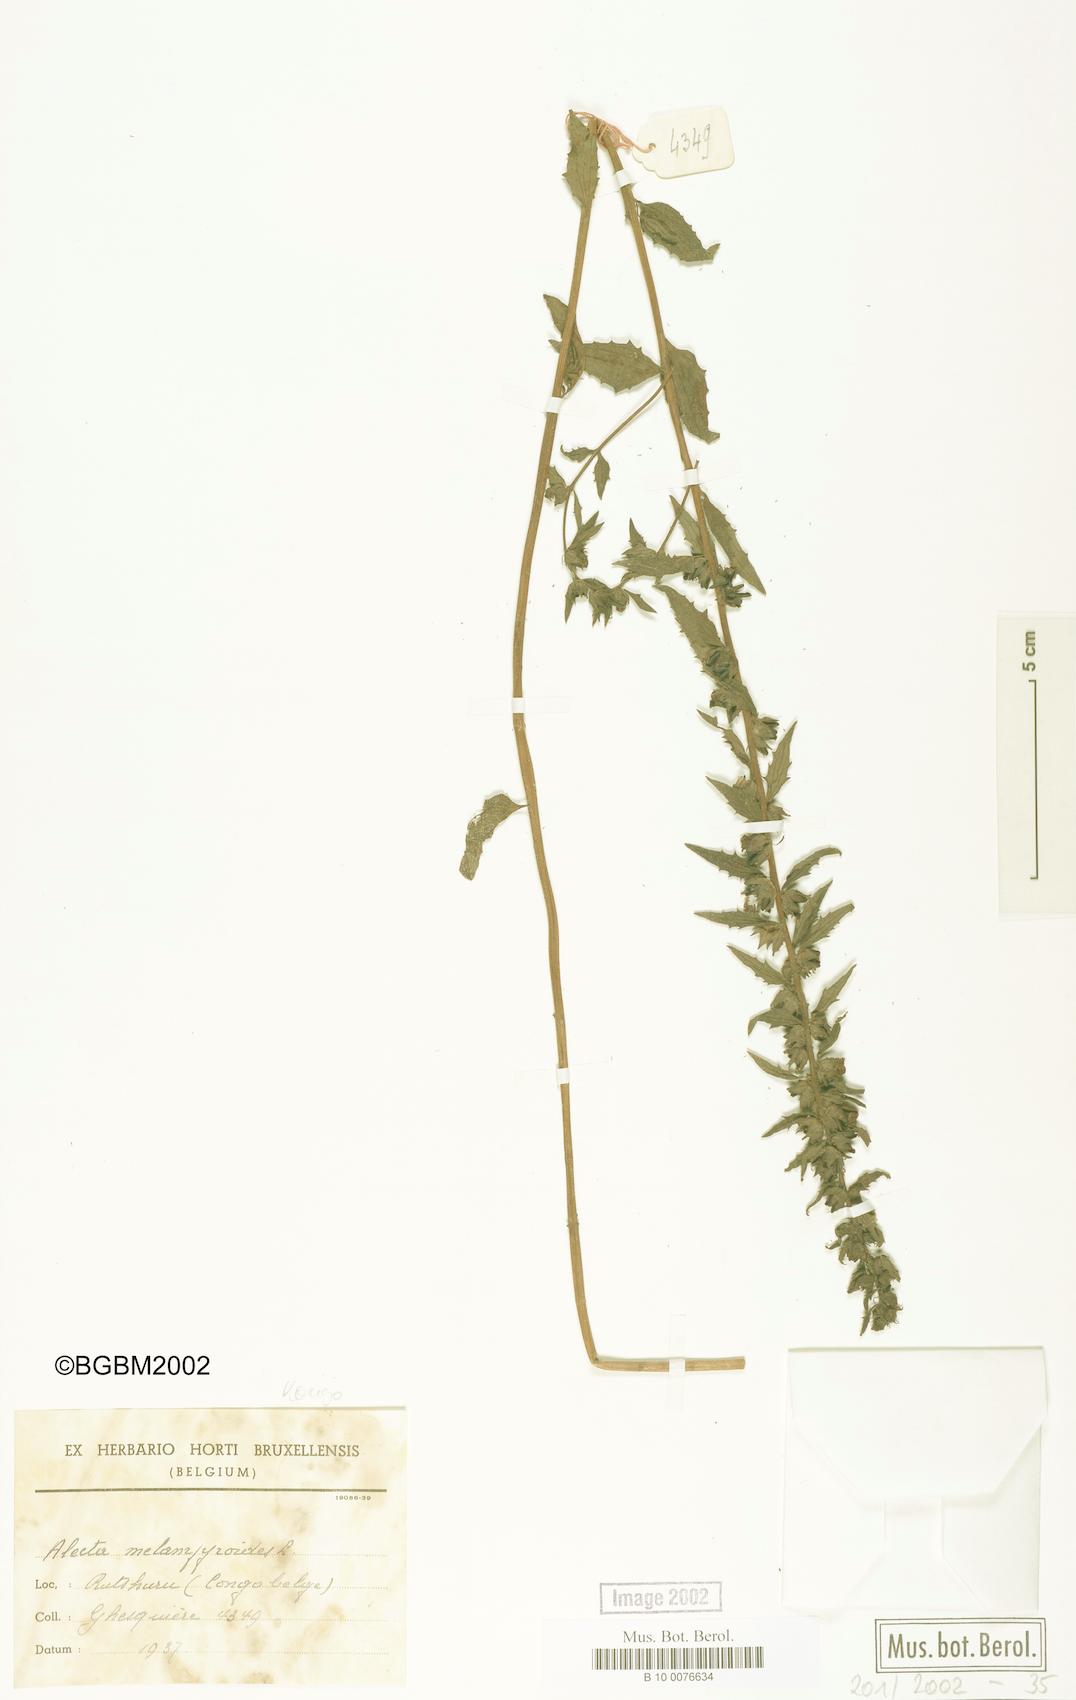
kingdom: Plantae
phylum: Tracheophyta
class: Magnoliopsida
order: Lamiales
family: Orobanchaceae
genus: Alectra
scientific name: Alectra sessiliflora
